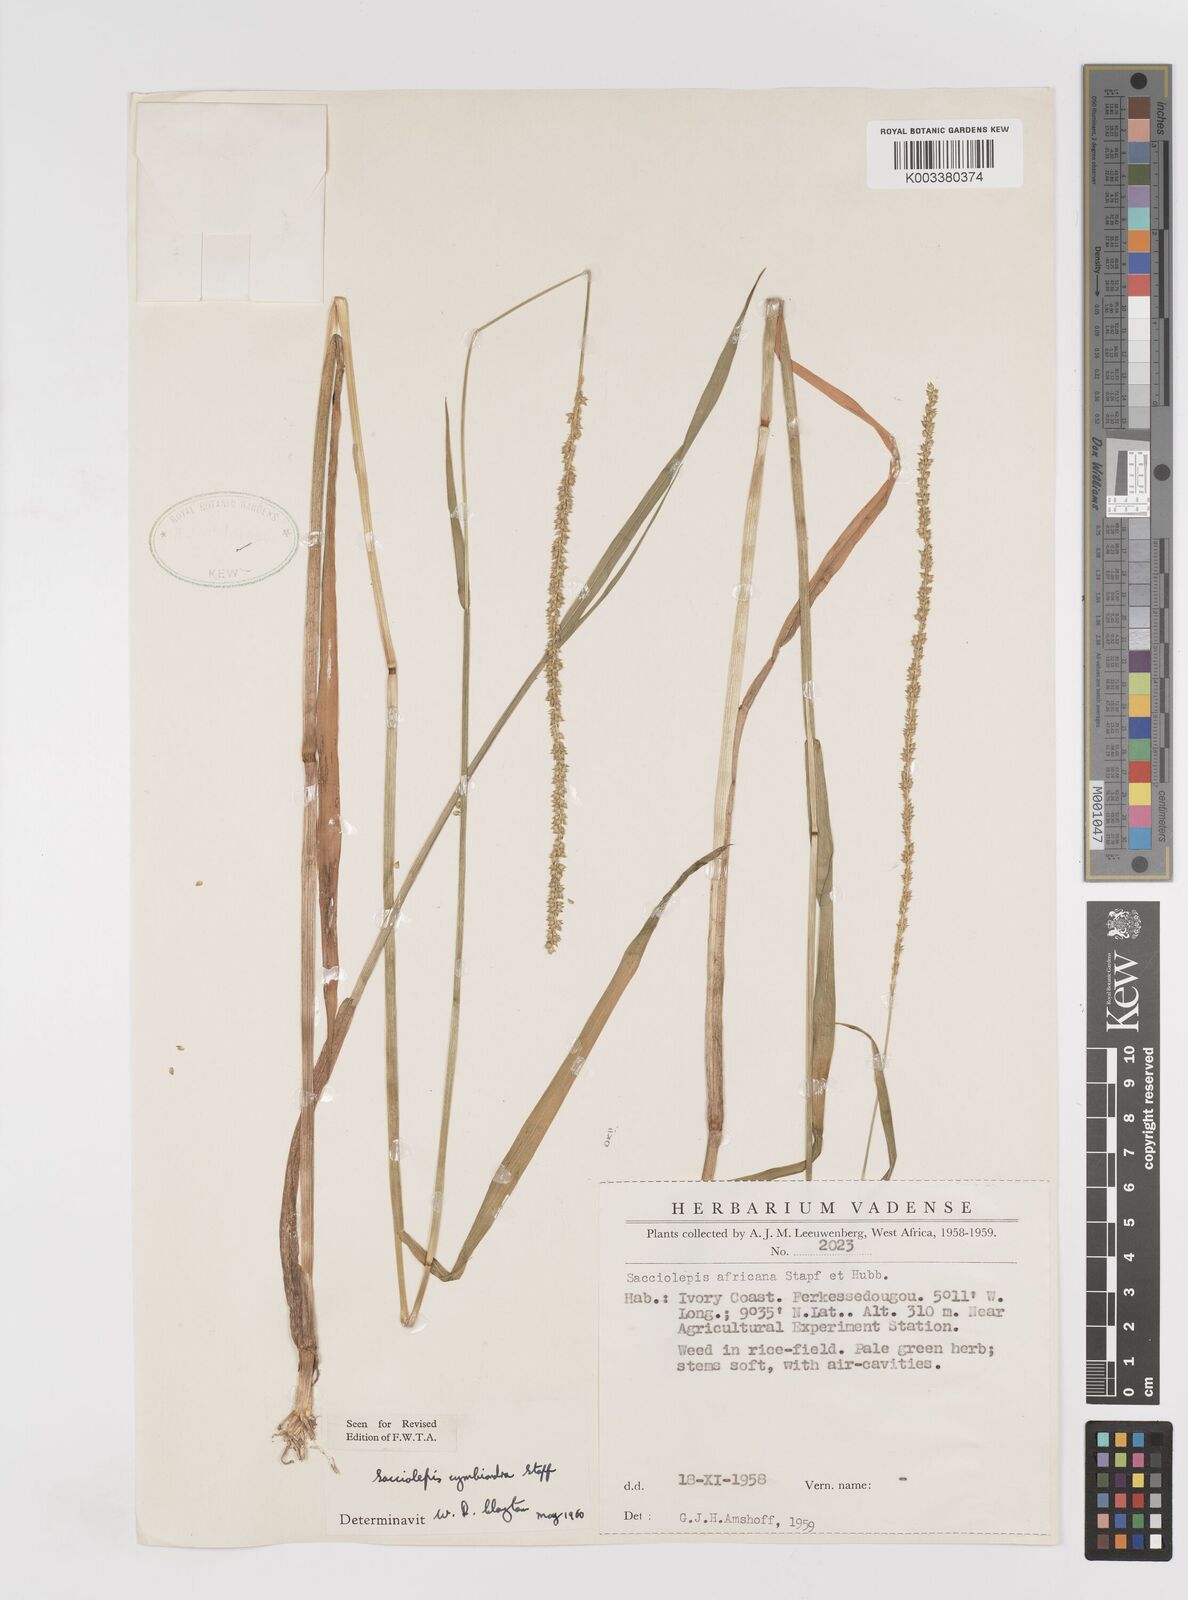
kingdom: Plantae
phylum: Tracheophyta
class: Liliopsida
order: Poales
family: Poaceae
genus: Sacciolepis
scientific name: Sacciolepis cymbiandra
